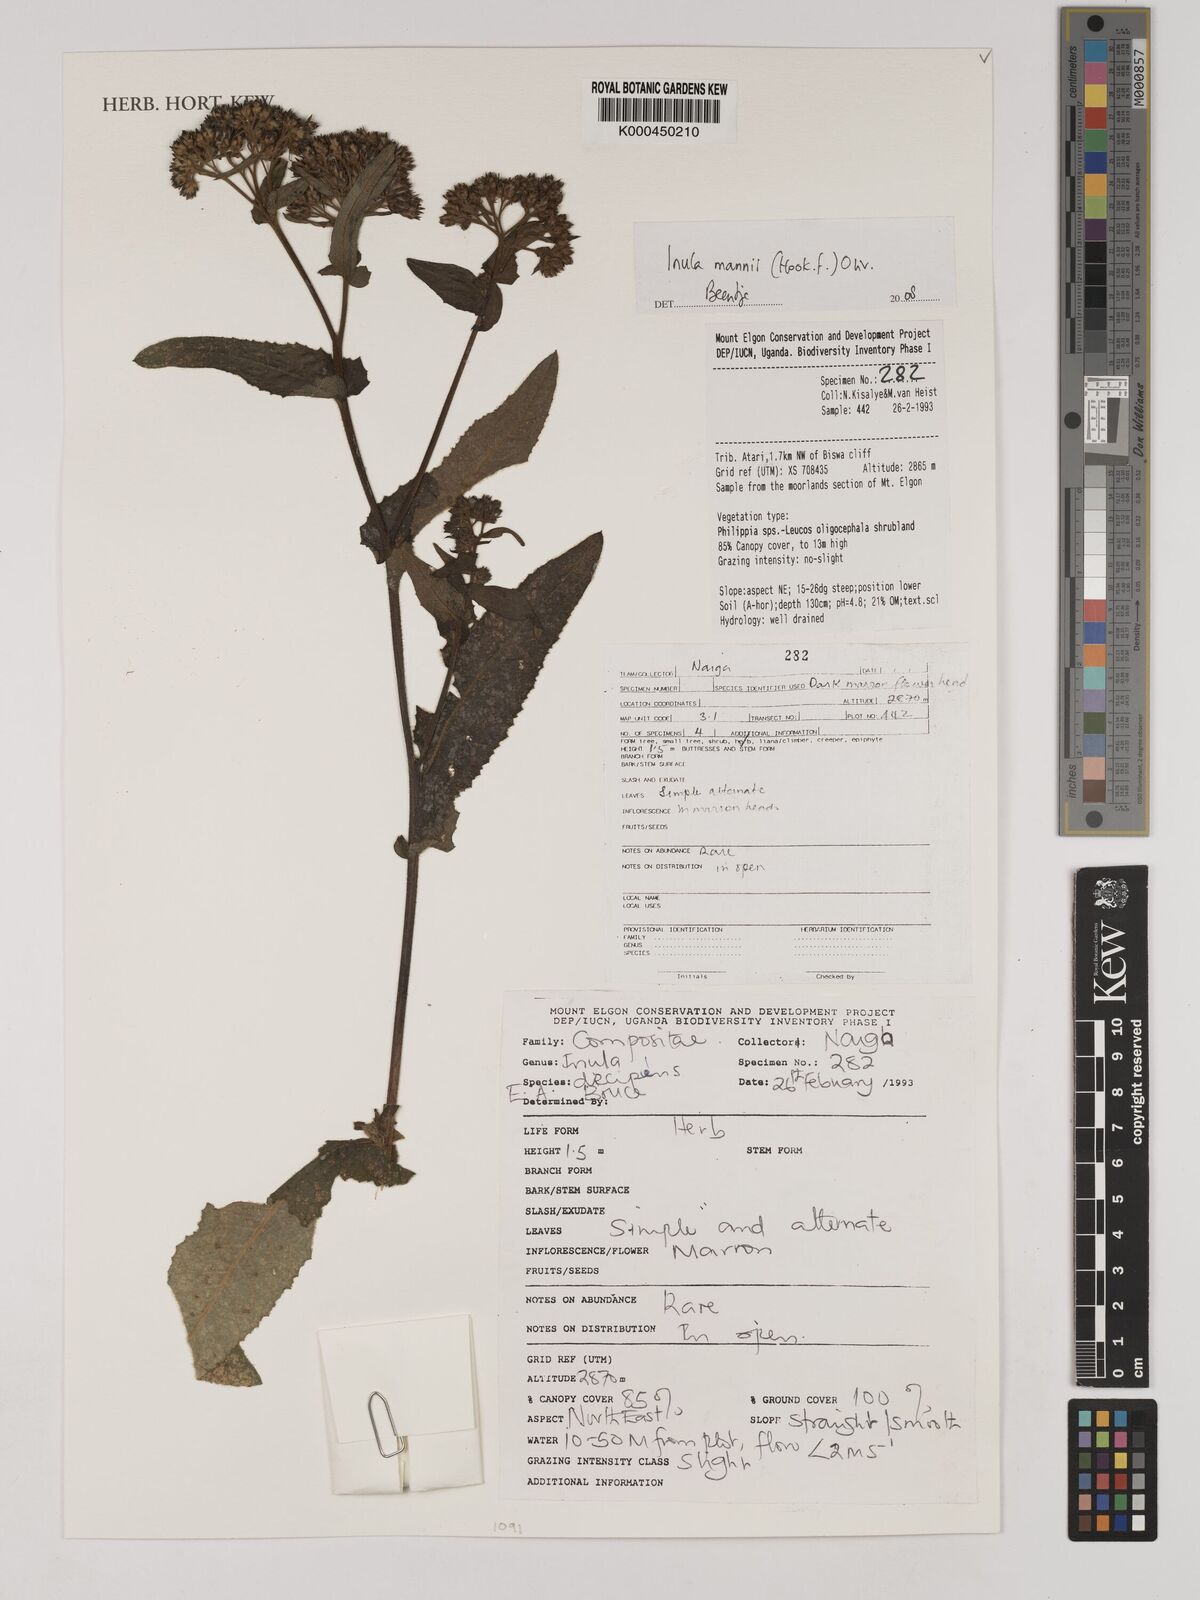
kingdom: Plantae
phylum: Tracheophyta
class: Magnoliopsida
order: Asterales
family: Asteraceae
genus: Inula
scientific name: Inula mannii
